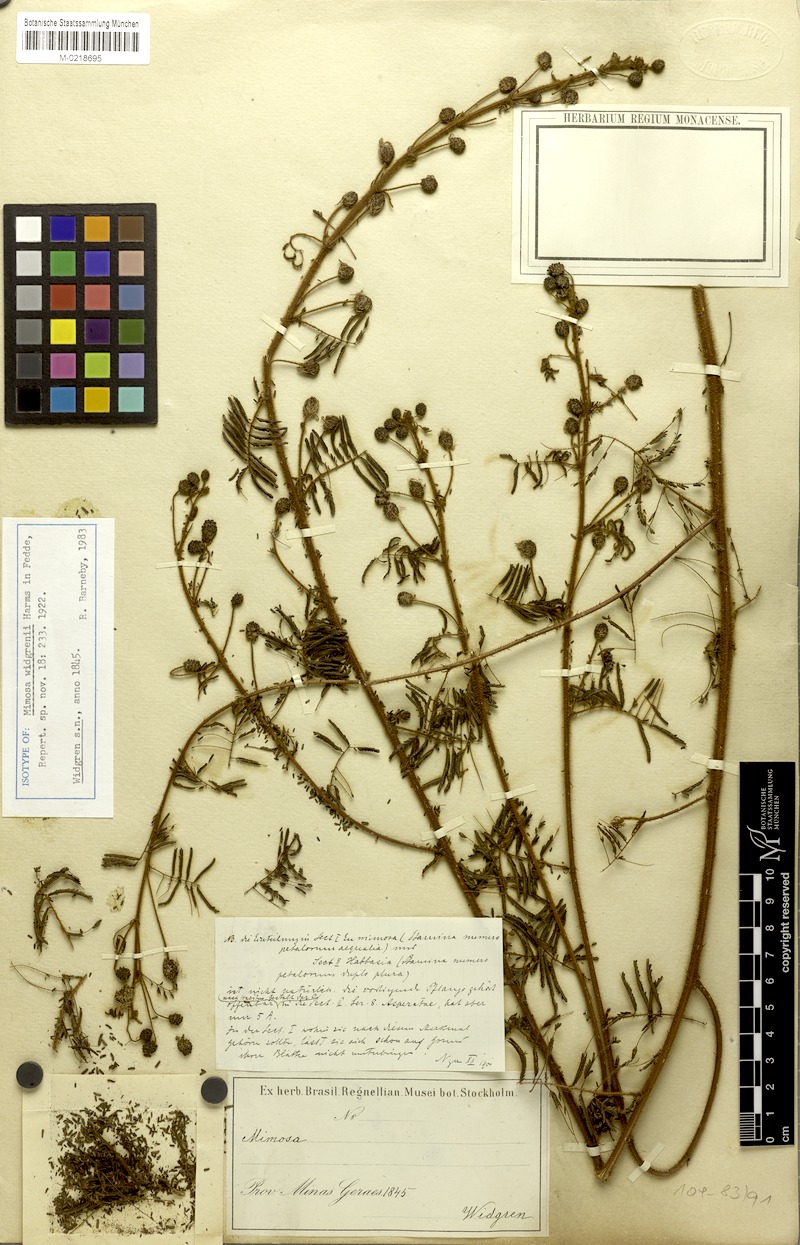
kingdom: Plantae
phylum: Tracheophyta
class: Magnoliopsida
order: Fabales
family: Fabaceae
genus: Mimosa
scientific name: Mimosa widgrenii
